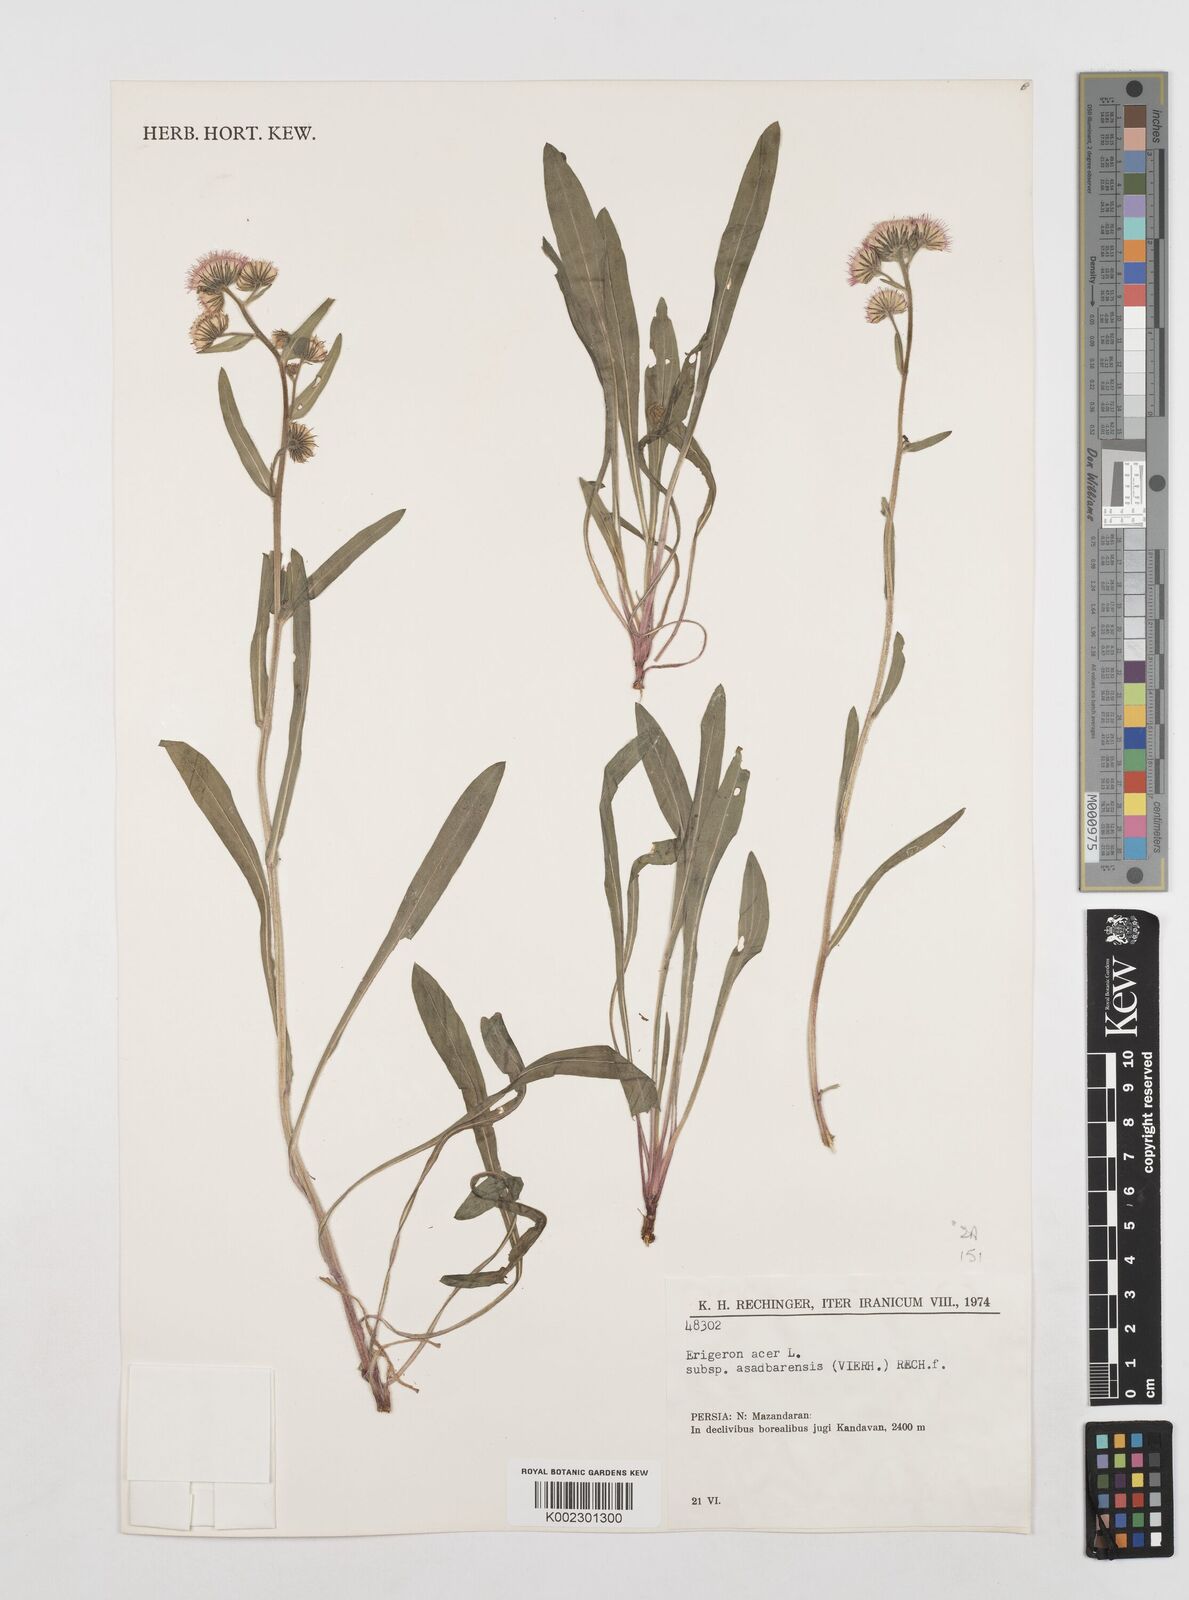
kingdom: Plantae
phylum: Tracheophyta
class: Magnoliopsida
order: Asterales
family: Asteraceae
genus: Erigeron
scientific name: Erigeron acris
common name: Blue fleabane
